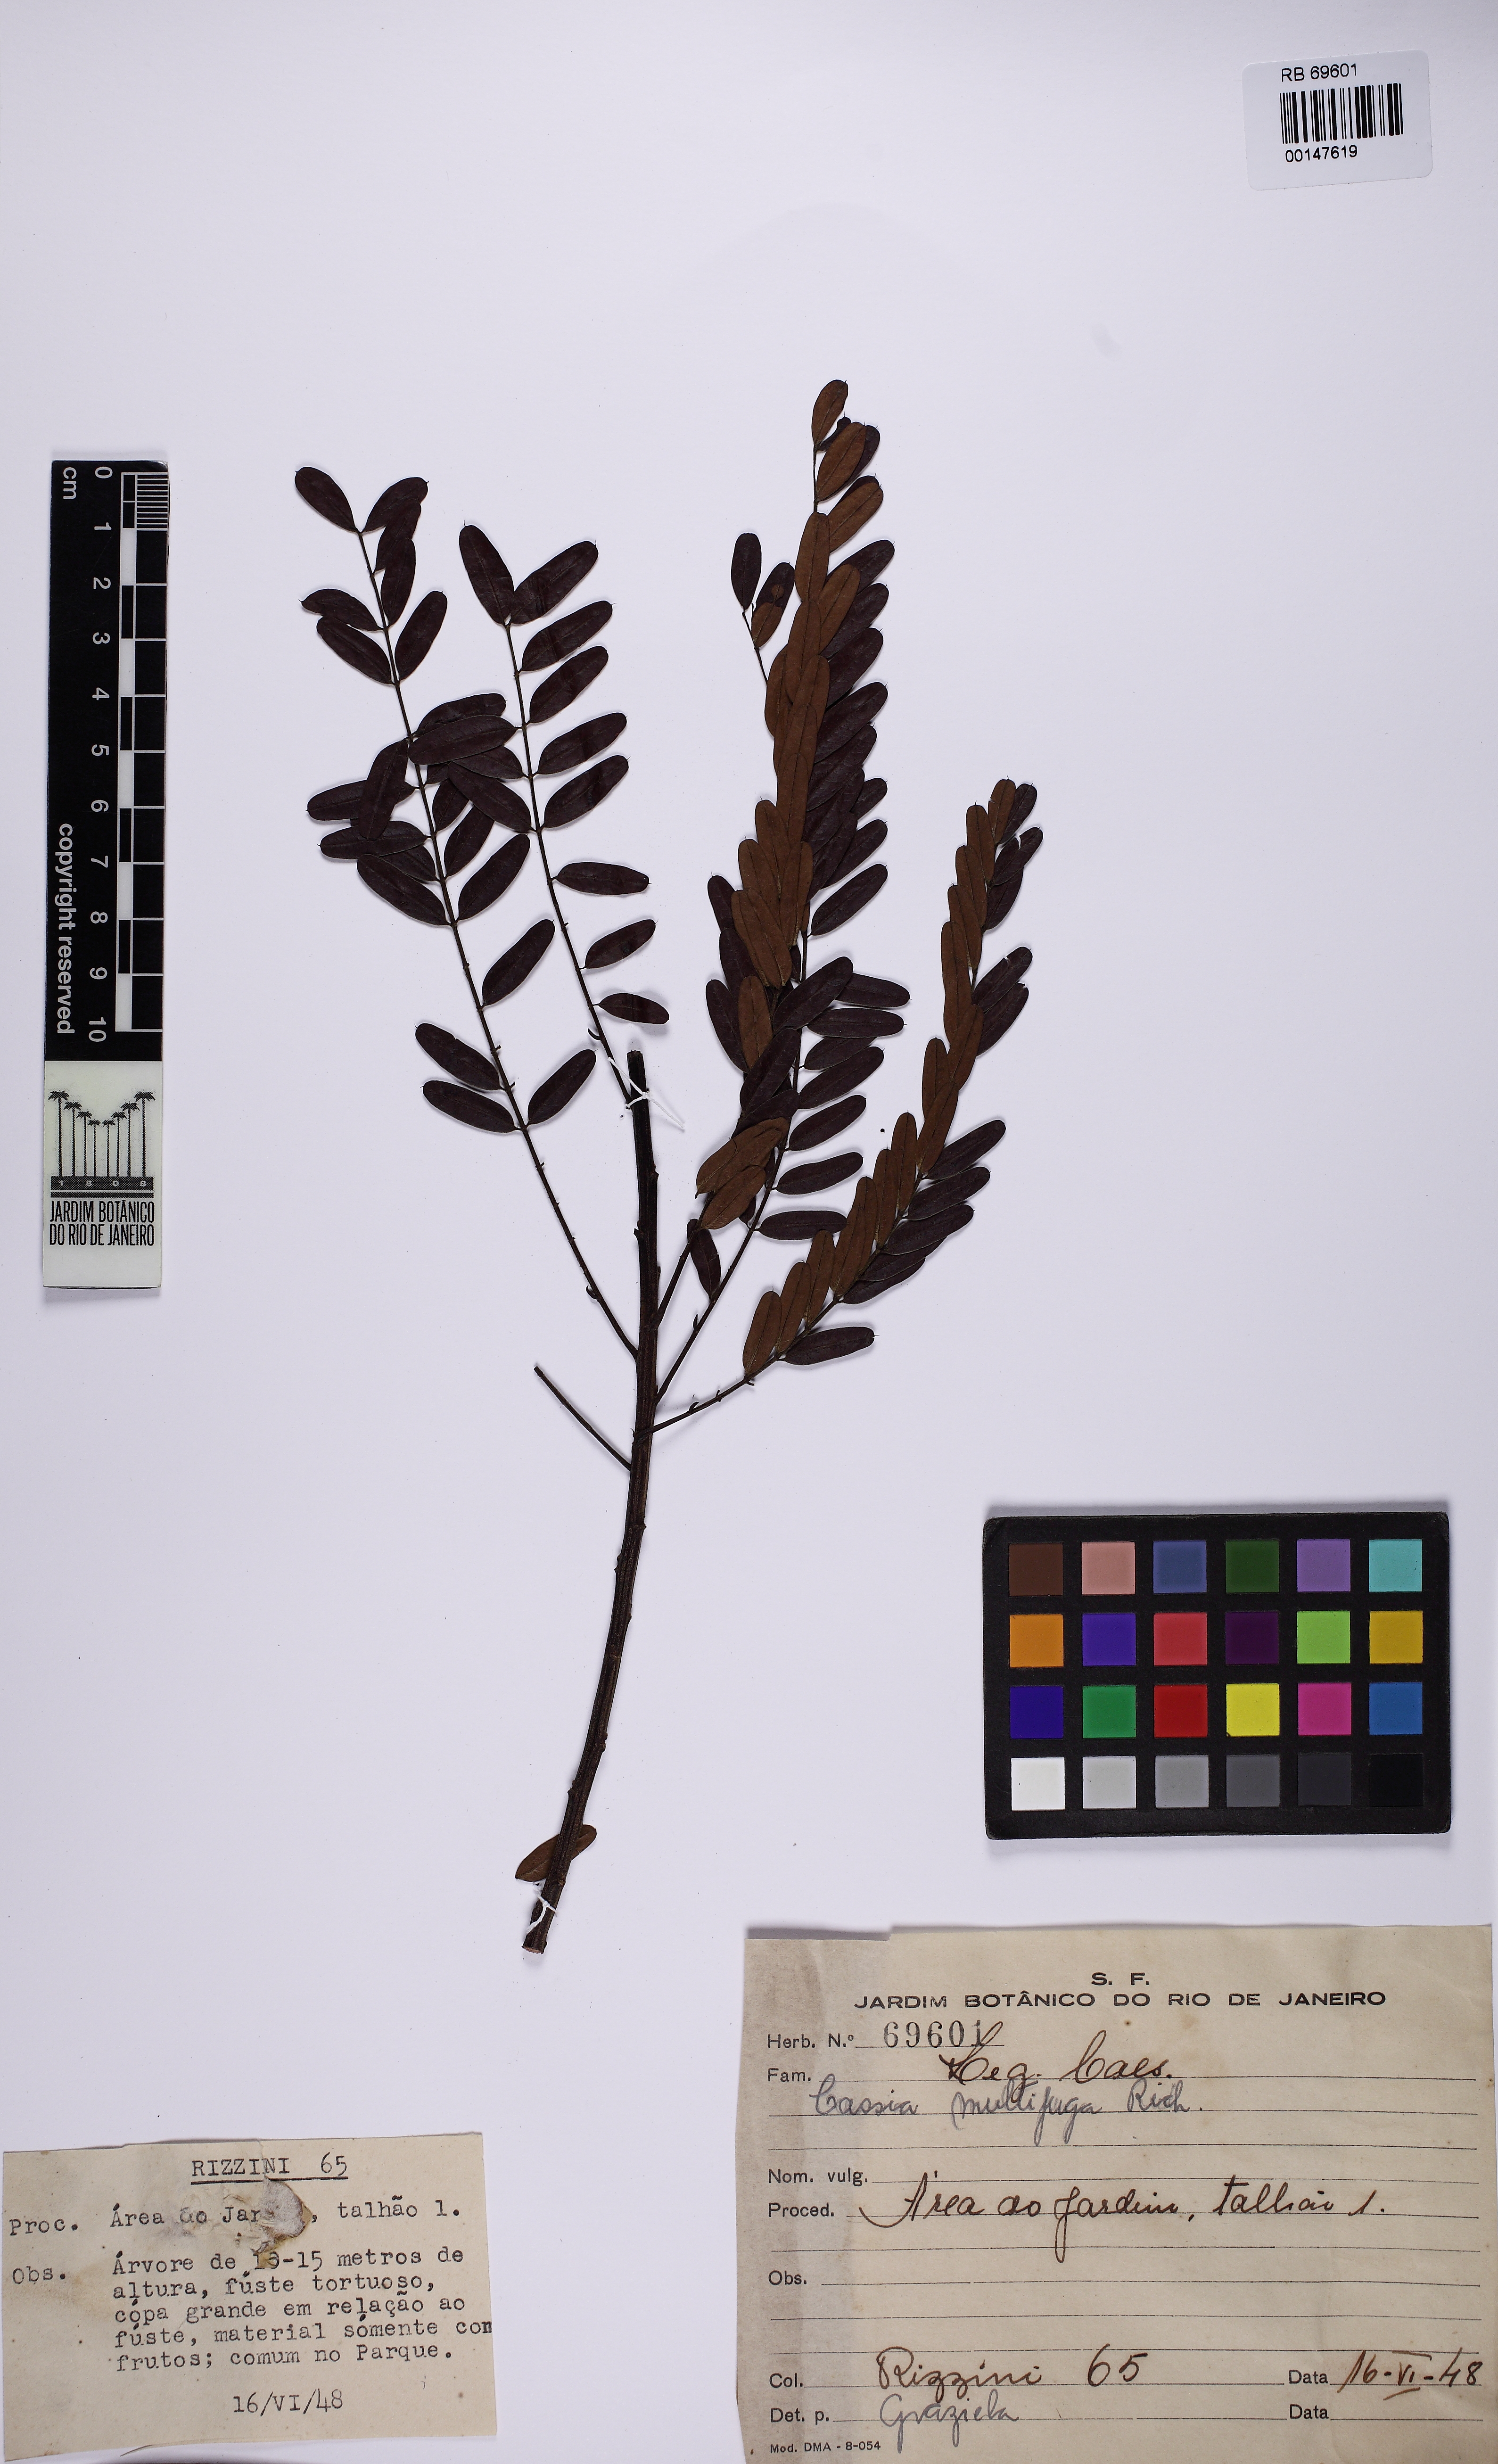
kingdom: Plantae
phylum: Tracheophyta
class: Magnoliopsida
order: Fabales
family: Fabaceae
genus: Senna
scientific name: Senna multijuga
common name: False sicklepod
